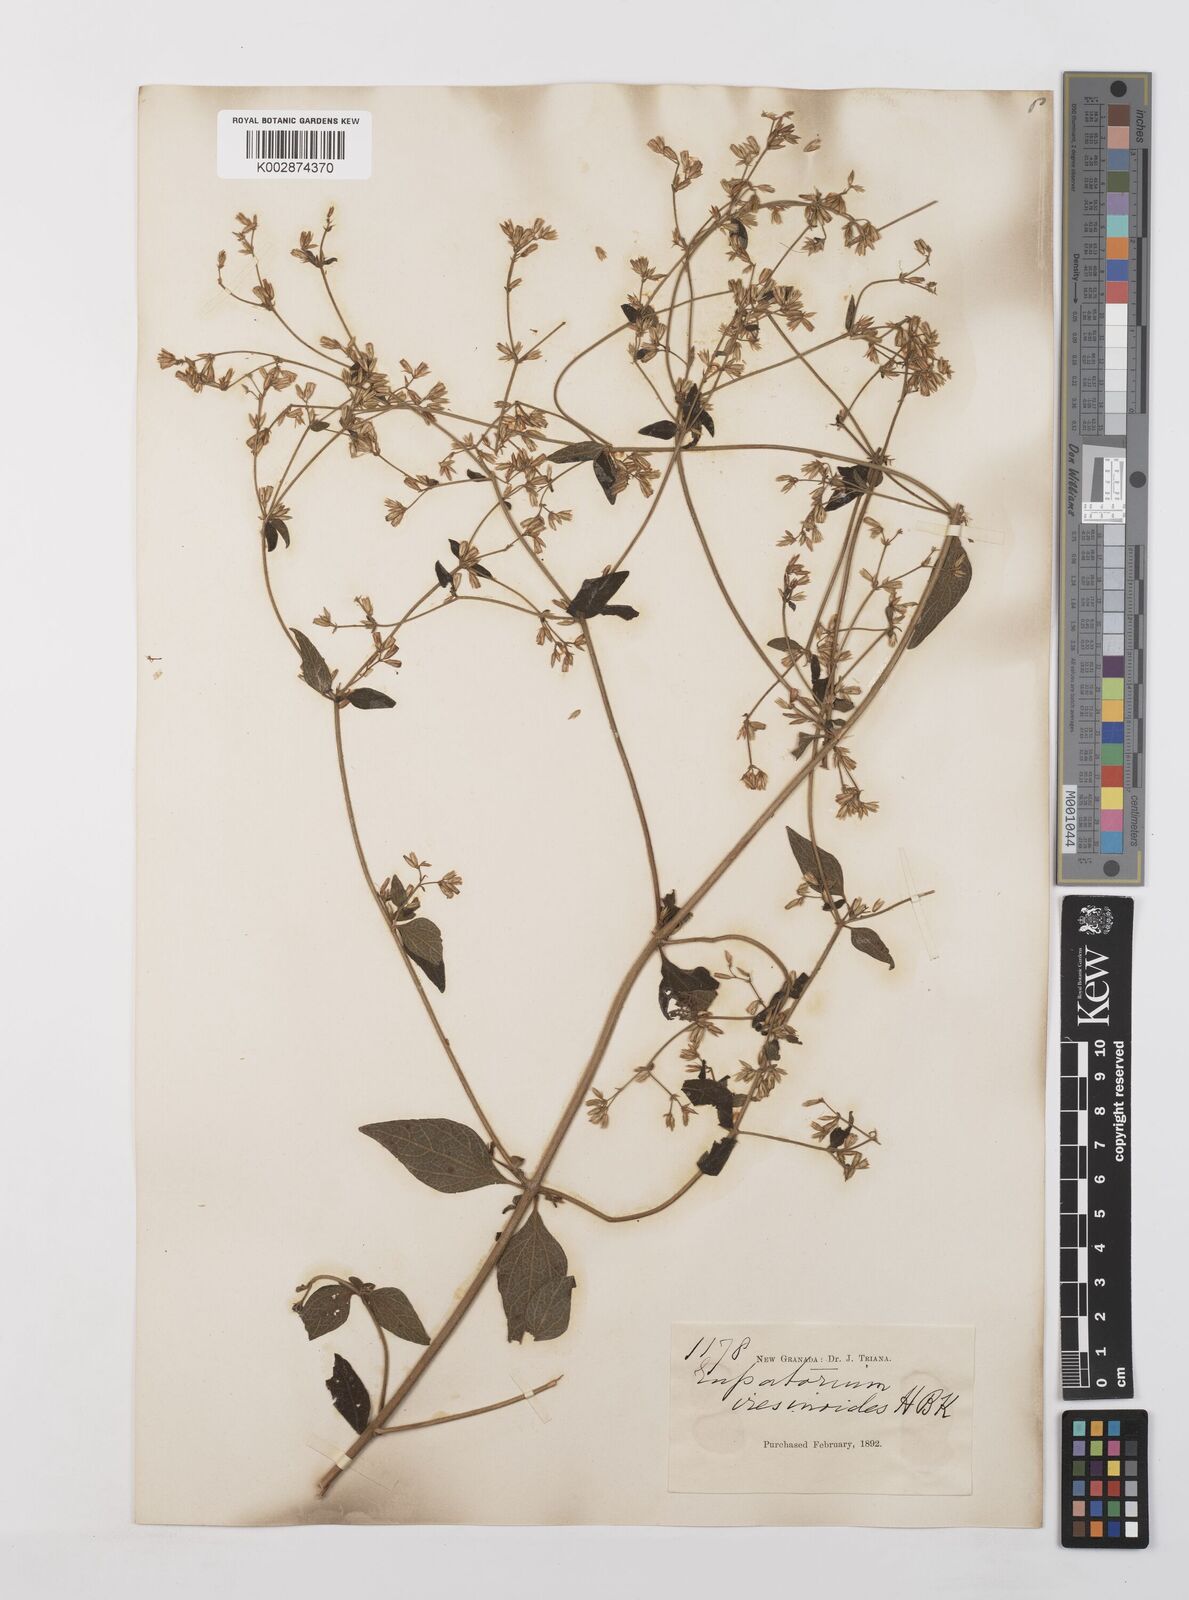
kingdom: Plantae
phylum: Tracheophyta
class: Magnoliopsida
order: Asterales
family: Asteraceae
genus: Condylidium
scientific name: Condylidium iresinoides
